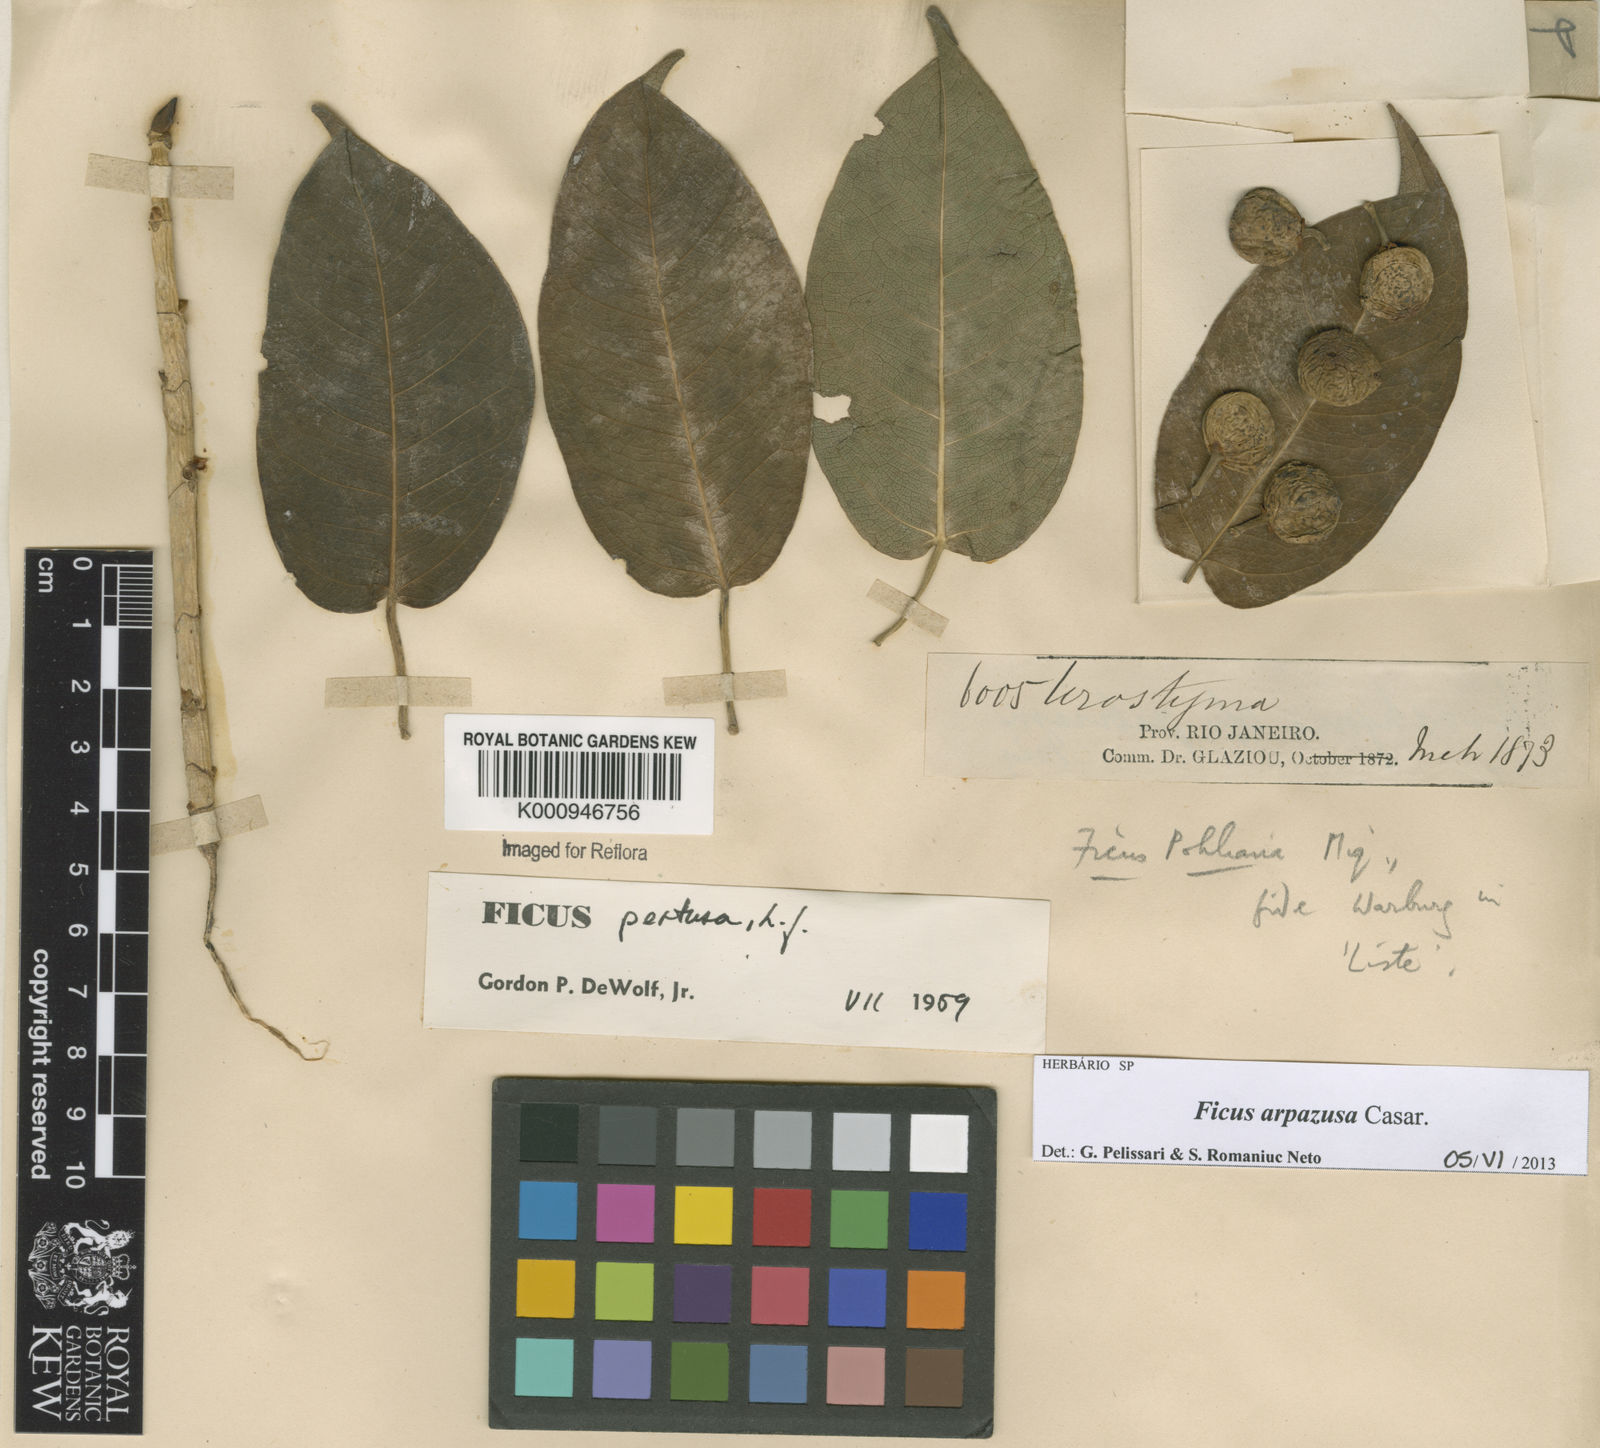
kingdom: Plantae
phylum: Tracheophyta
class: Magnoliopsida
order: Rosales
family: Moraceae
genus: Ficus
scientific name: Ficus arpazusa
